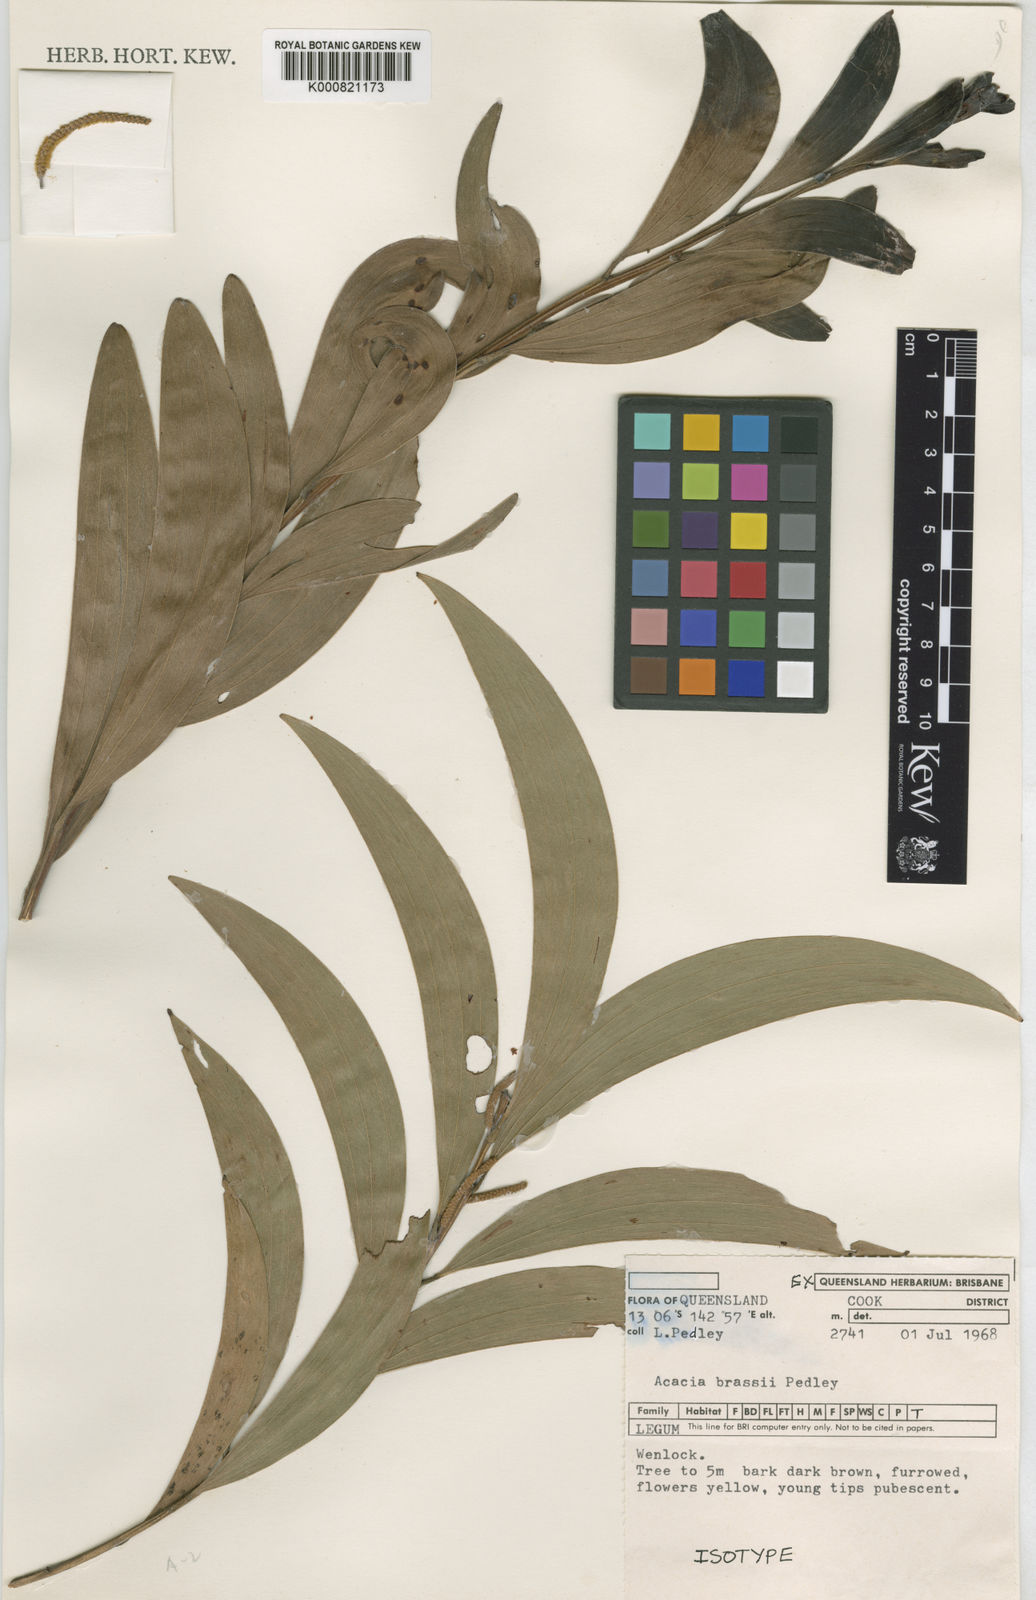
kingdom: Plantae
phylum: Tracheophyta
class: Magnoliopsida
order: Fabales
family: Fabaceae
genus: Acacia
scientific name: Acacia brassii
